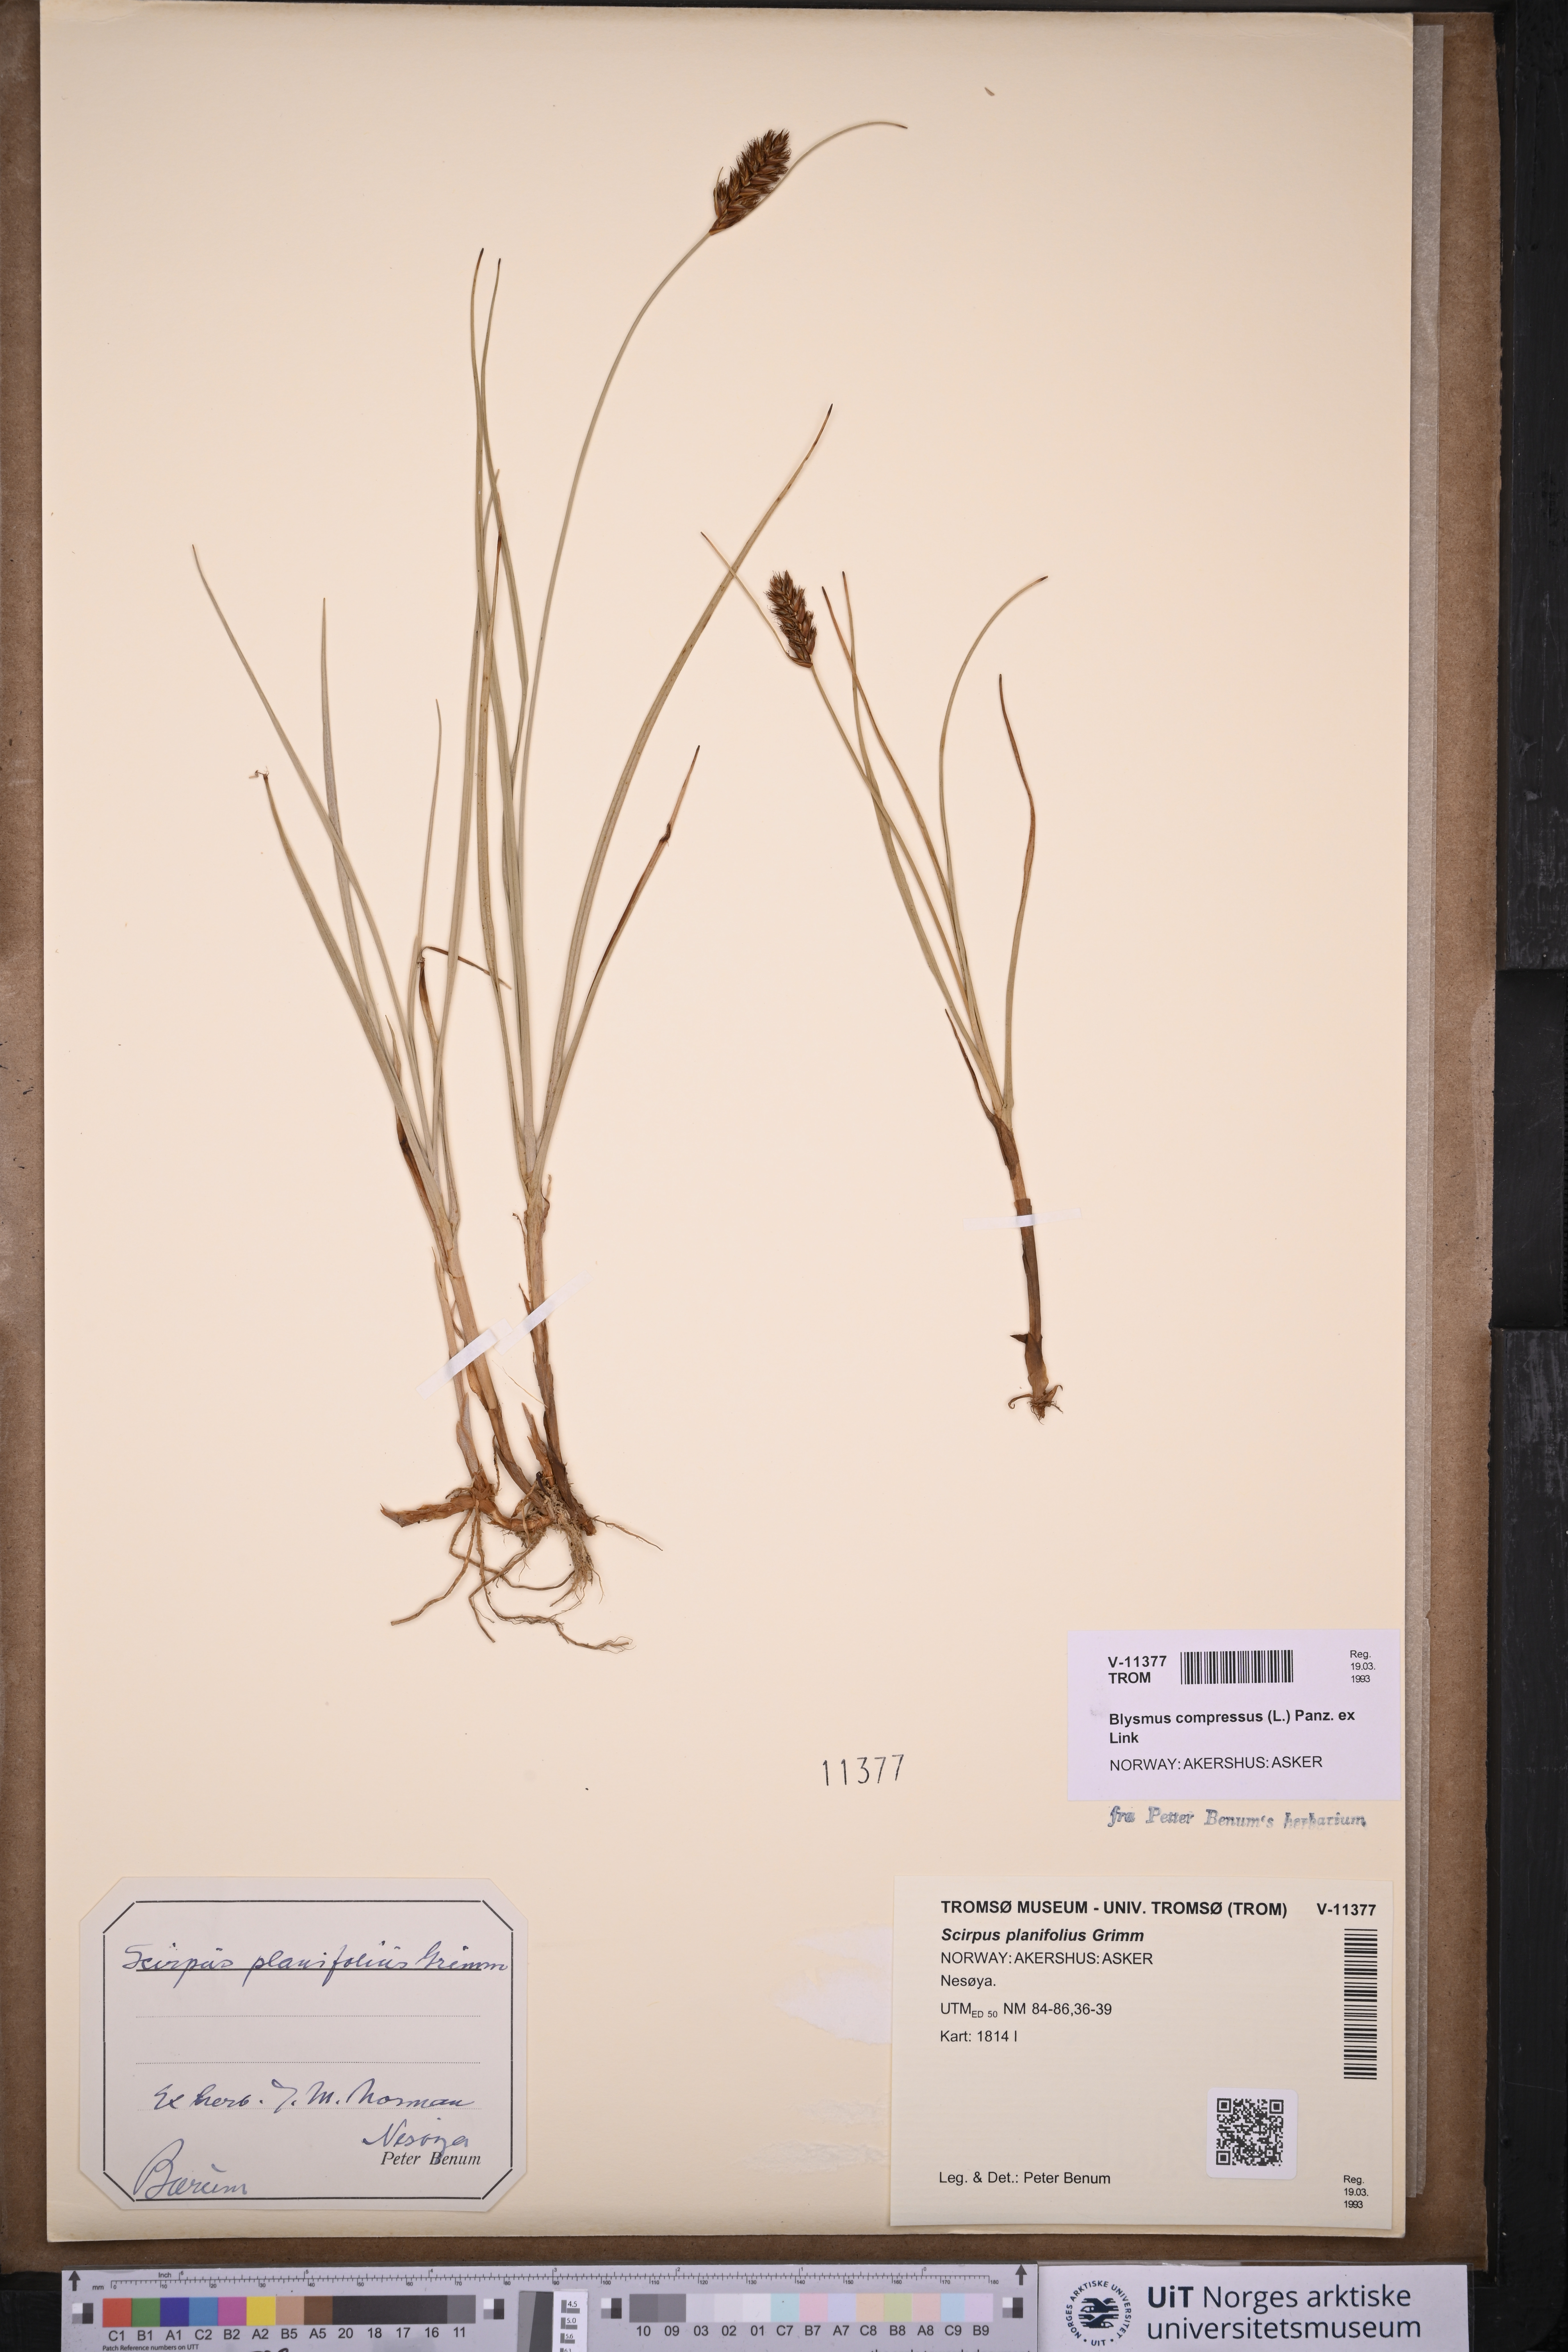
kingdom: Plantae
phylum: Tracheophyta
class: Liliopsida
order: Poales
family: Cyperaceae
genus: Blysmus
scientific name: Blysmus compressus
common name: Flat-sedge
